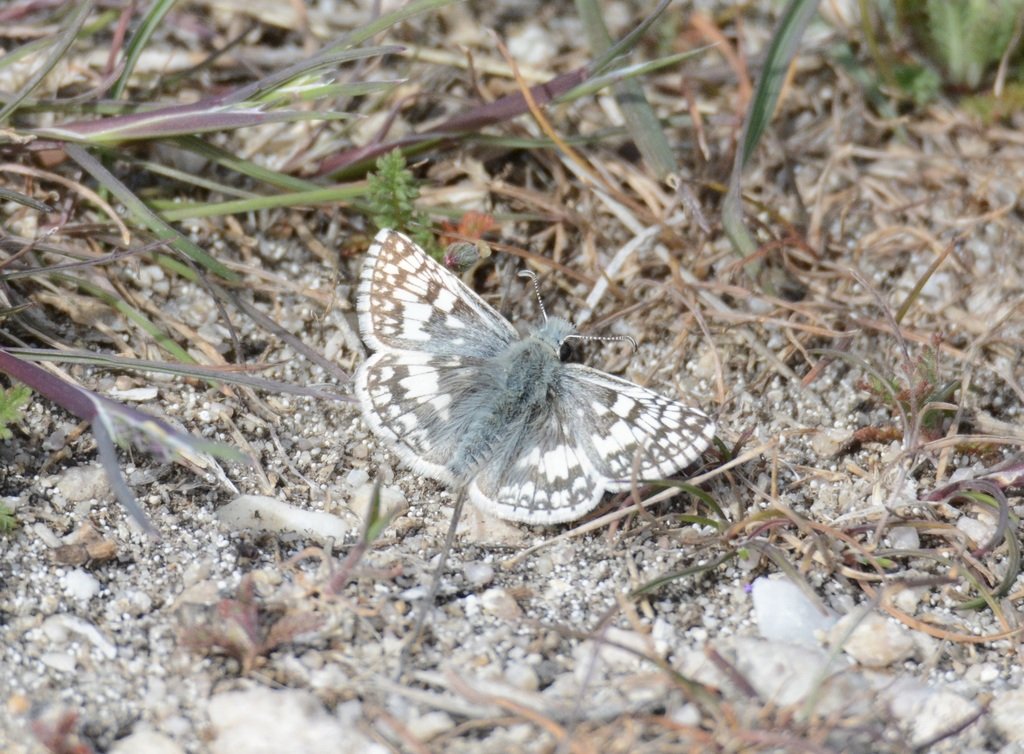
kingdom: Animalia
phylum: Arthropoda
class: Insecta
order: Lepidoptera
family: Hesperiidae
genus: Pyrgus
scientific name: Pyrgus communis
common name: Common Checkered-Skipper
